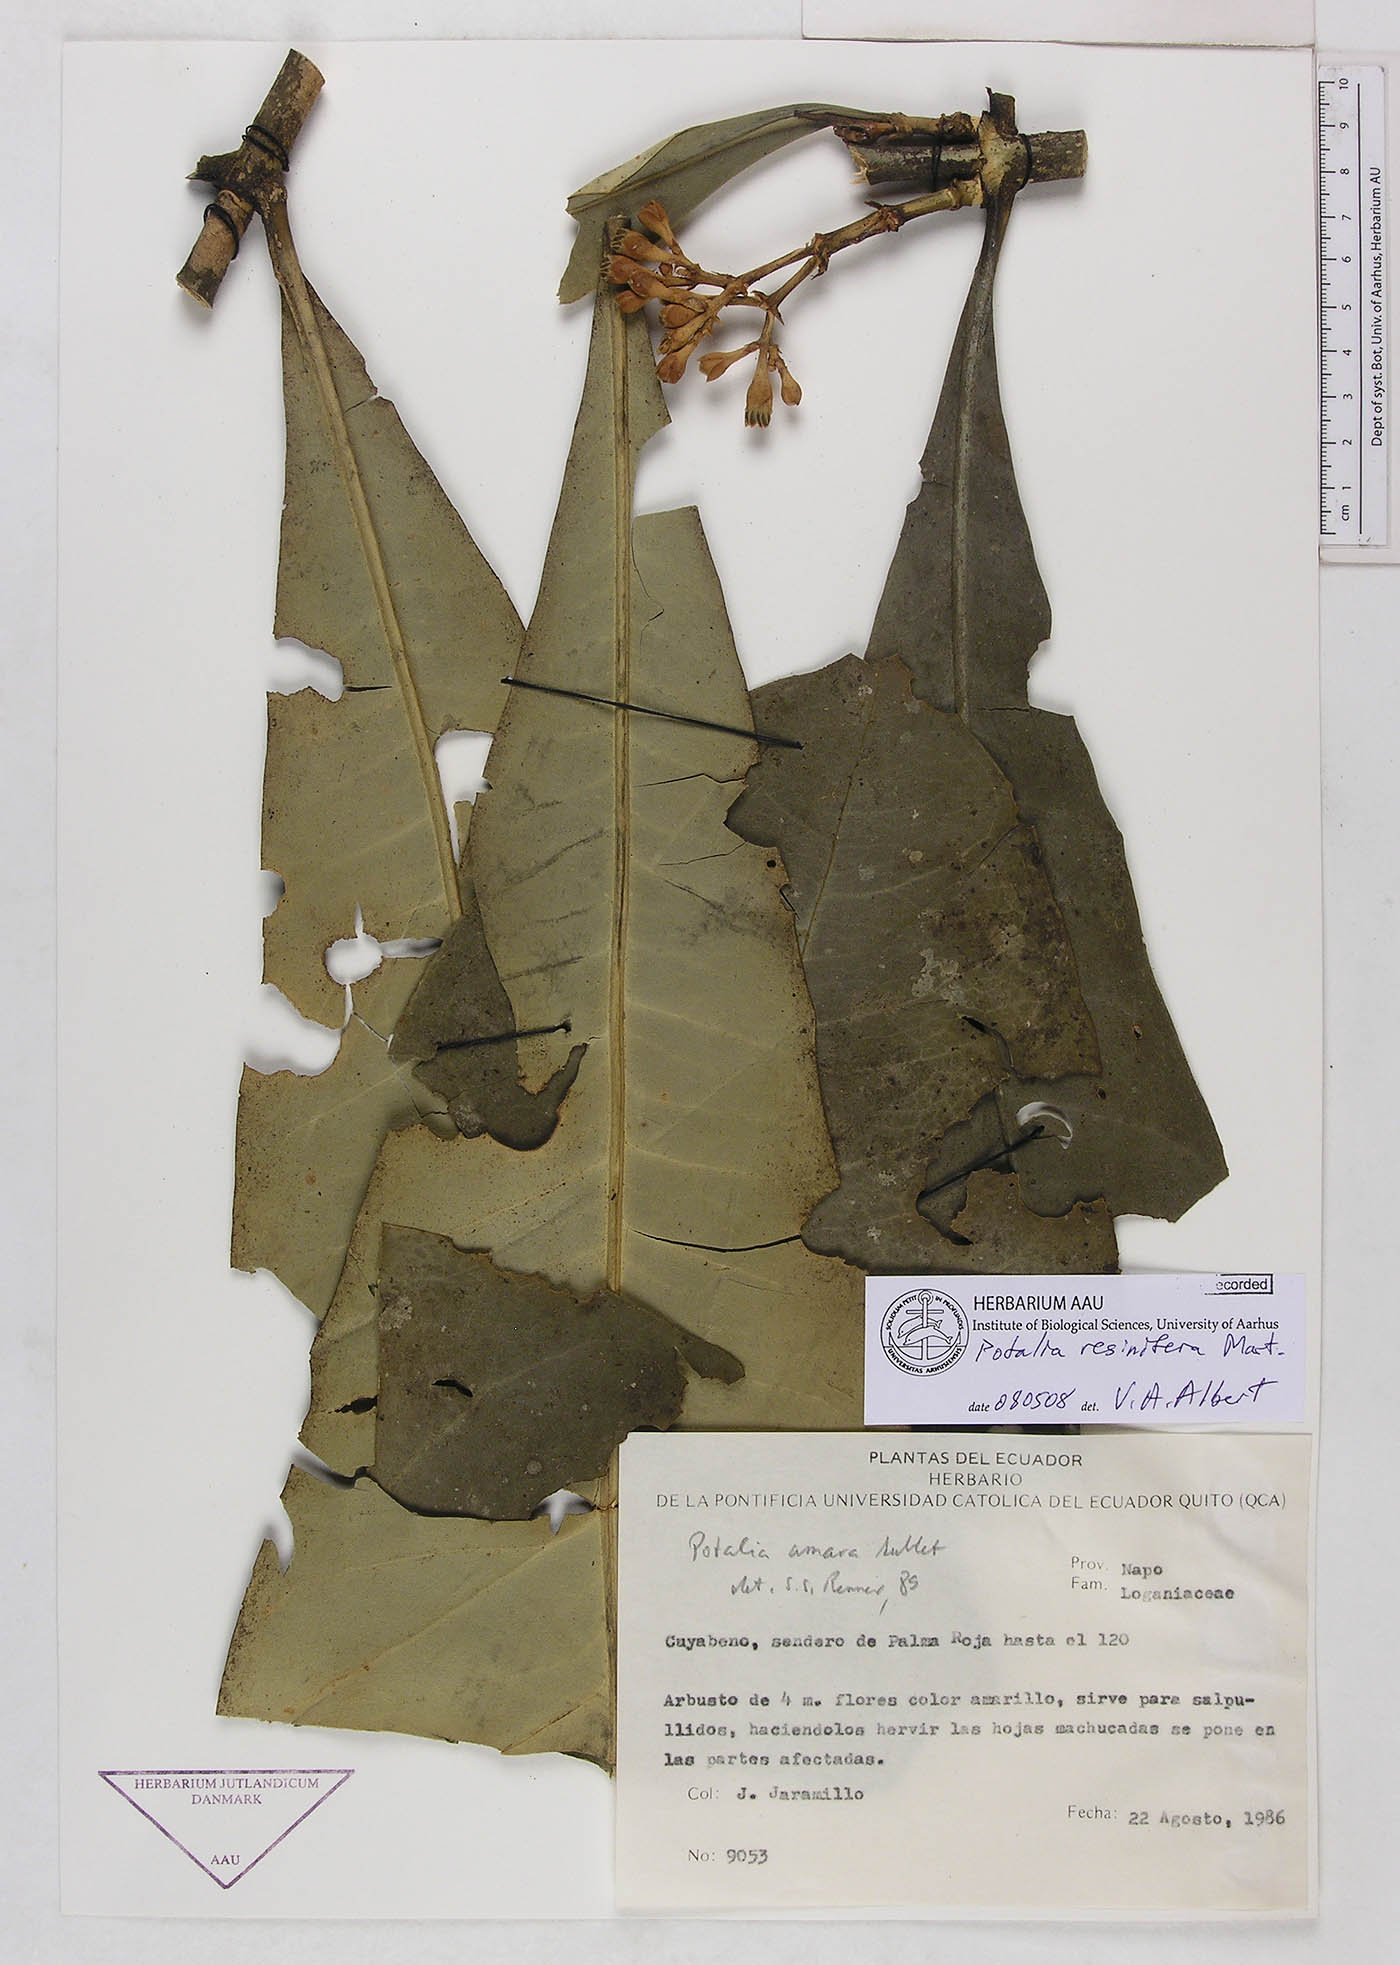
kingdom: Plantae
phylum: Tracheophyta
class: Magnoliopsida
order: Gentianales
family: Gentianaceae
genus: Potalia
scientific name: Potalia resinifera
